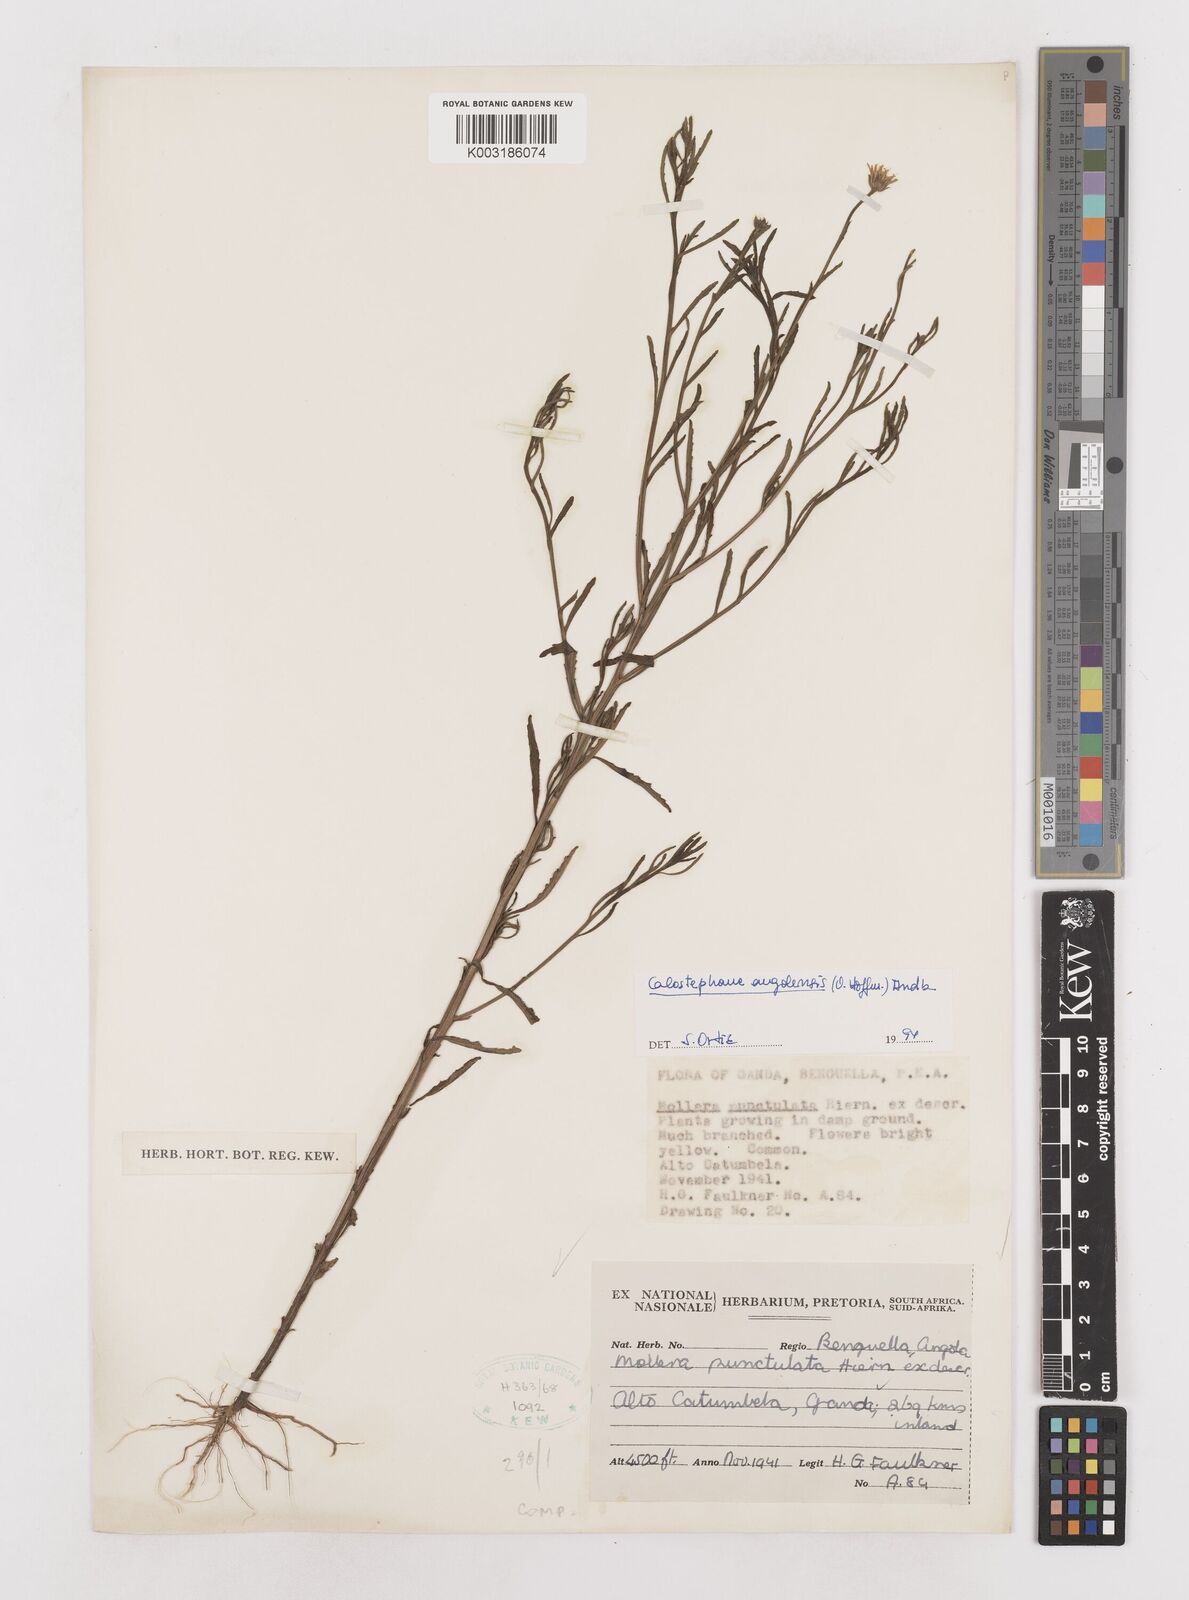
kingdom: Plantae
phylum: Tracheophyta
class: Magnoliopsida
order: Asterales
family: Asteraceae
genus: Calostephane
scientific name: Calostephane angolensis
